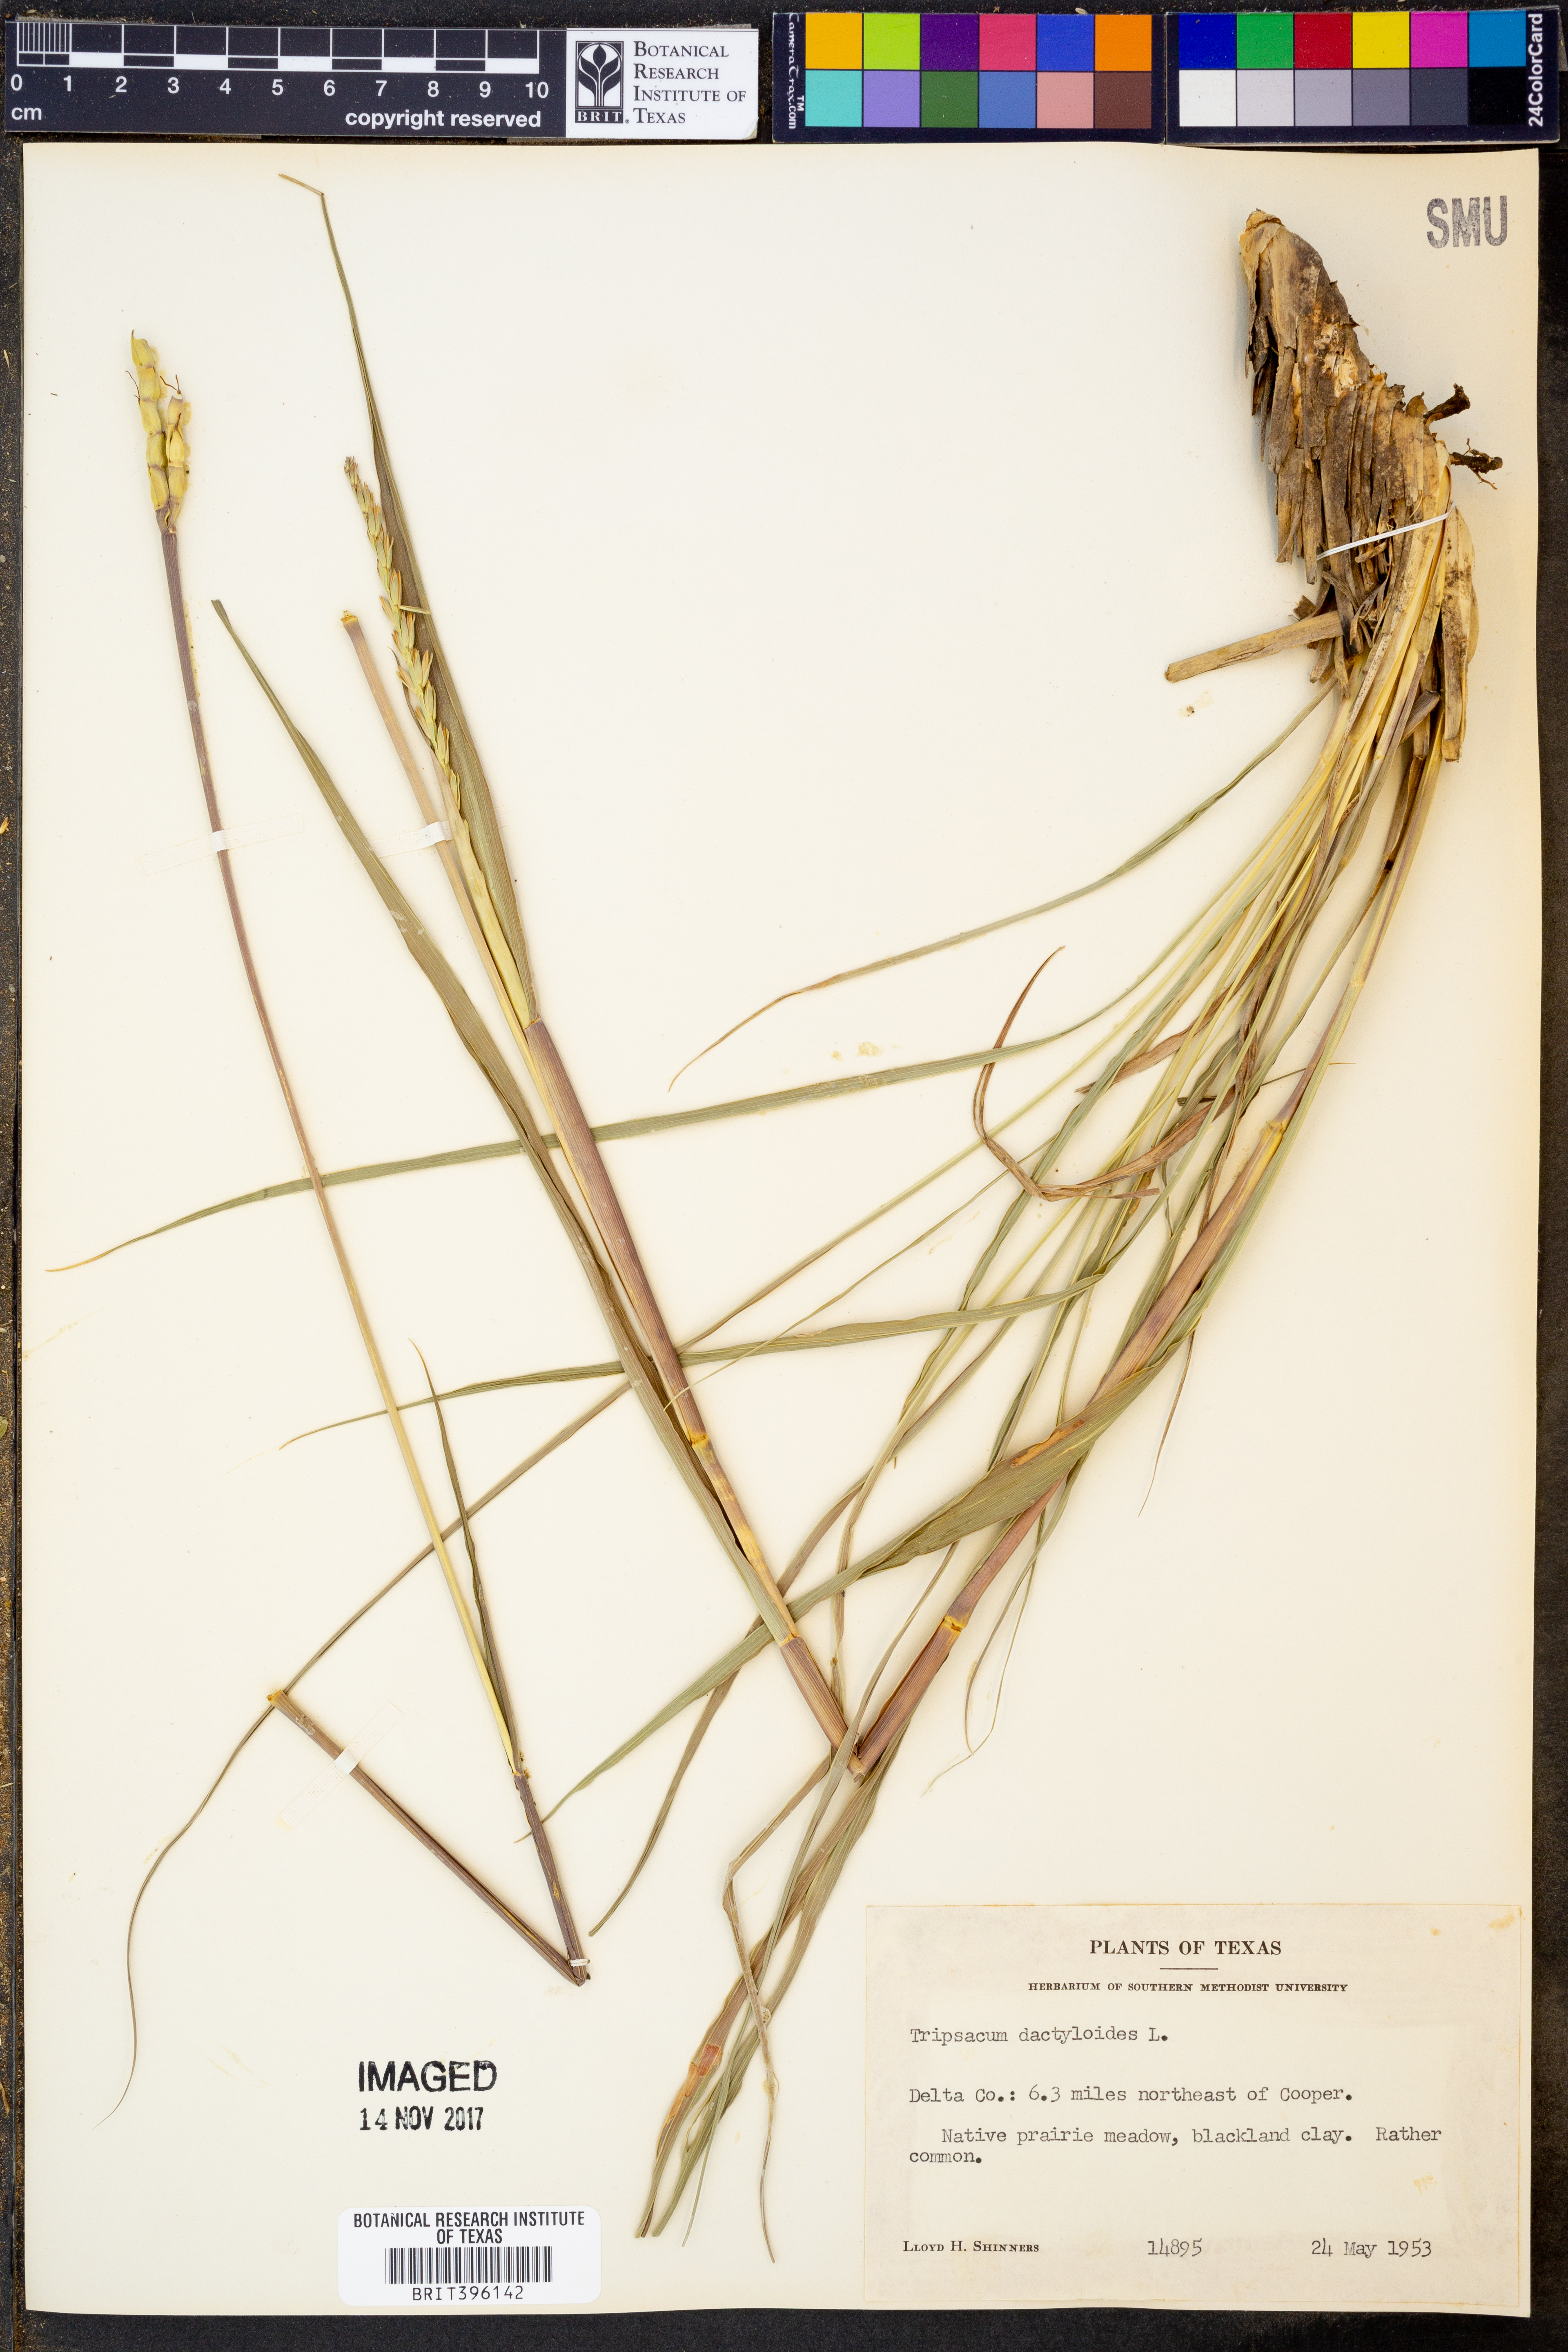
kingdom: Plantae
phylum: Tracheophyta
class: Liliopsida
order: Poales
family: Poaceae
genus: Tripsacum
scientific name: Tripsacum dactyloides
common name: Buffalo-grass
